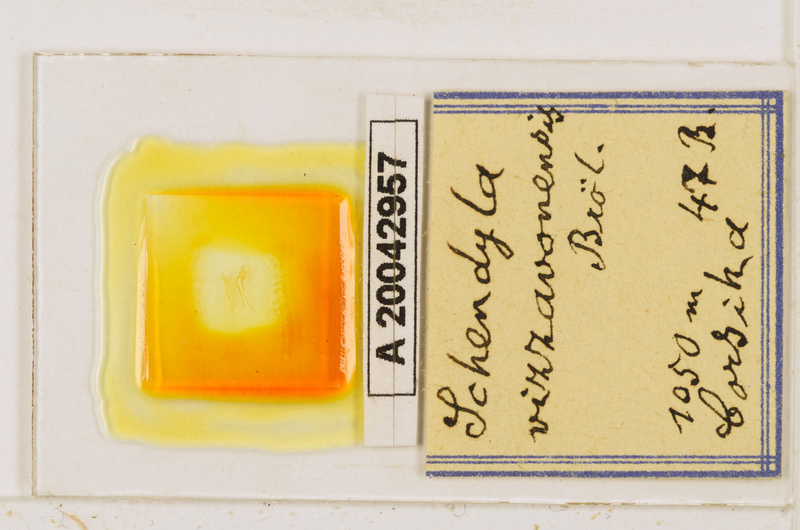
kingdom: Animalia
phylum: Arthropoda
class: Chilopoda
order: Geophilomorpha
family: Schendylidae
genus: Schendyla
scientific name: Schendyla vizzavonae
